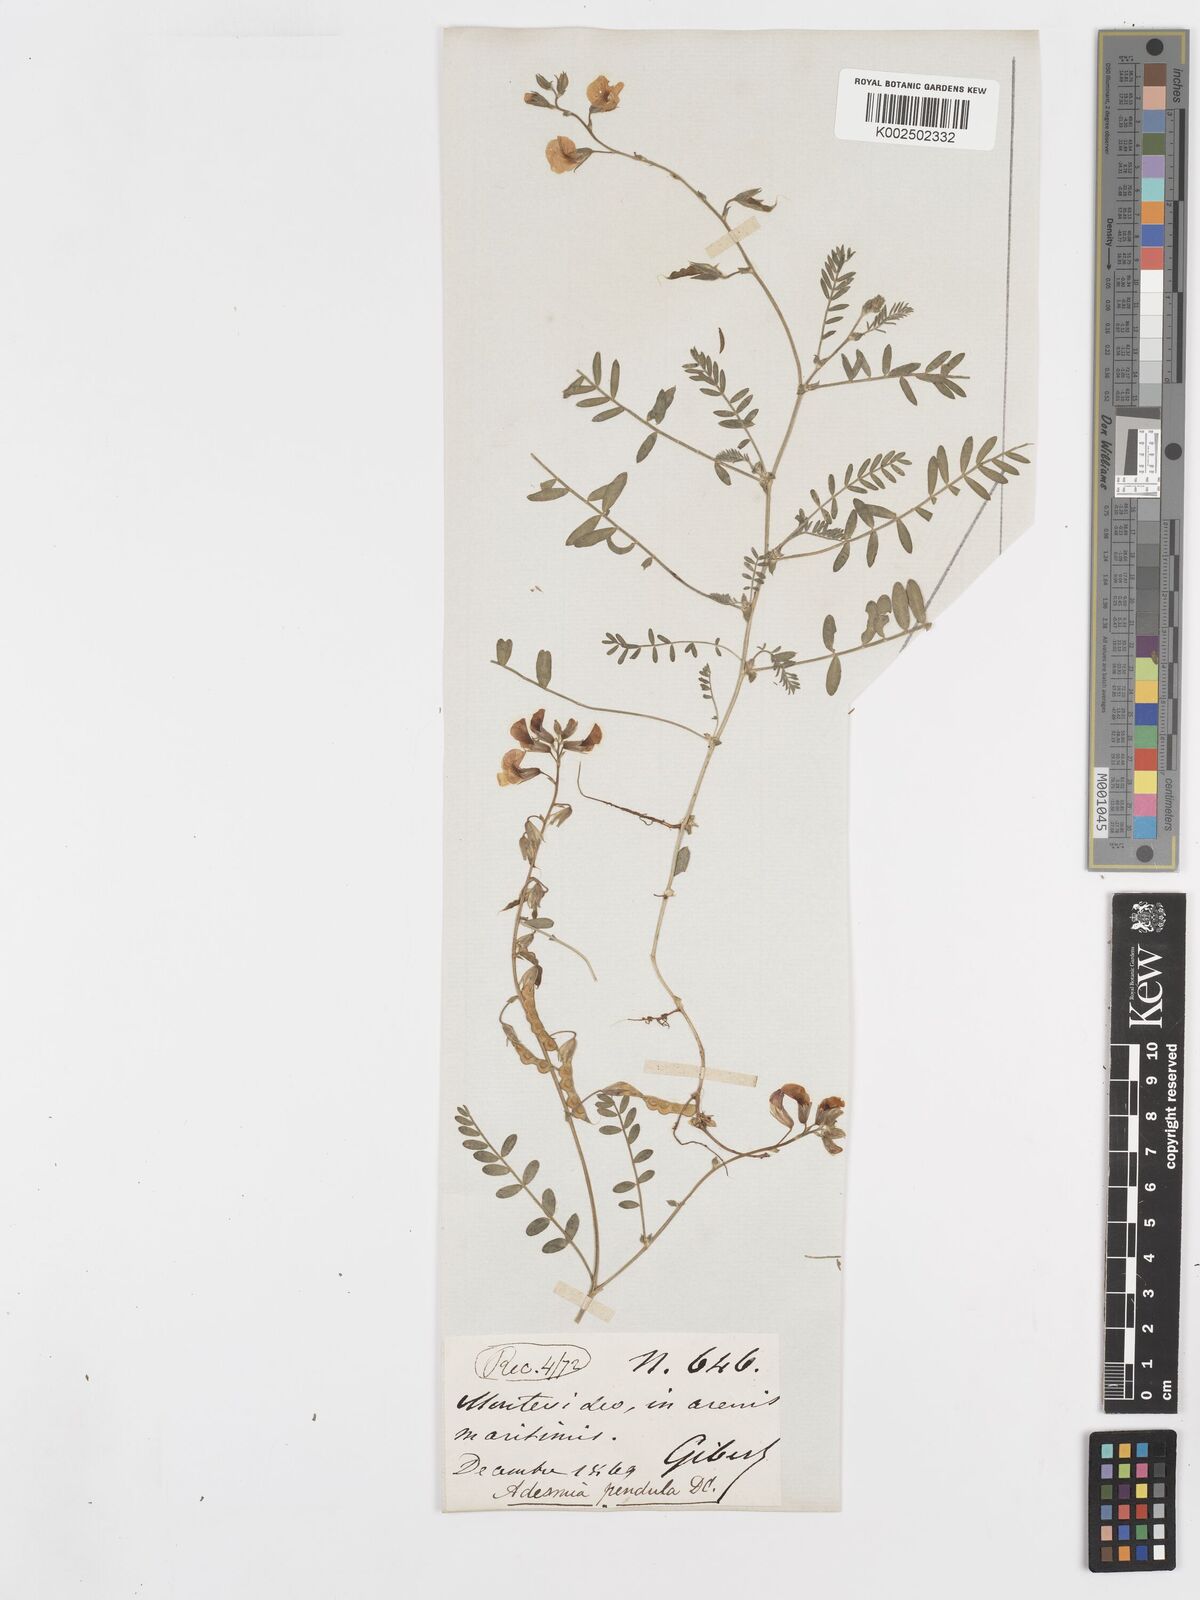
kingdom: Plantae
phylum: Tracheophyta
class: Magnoliopsida
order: Fabales
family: Fabaceae
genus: Adesmia
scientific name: Adesmia bicolora
